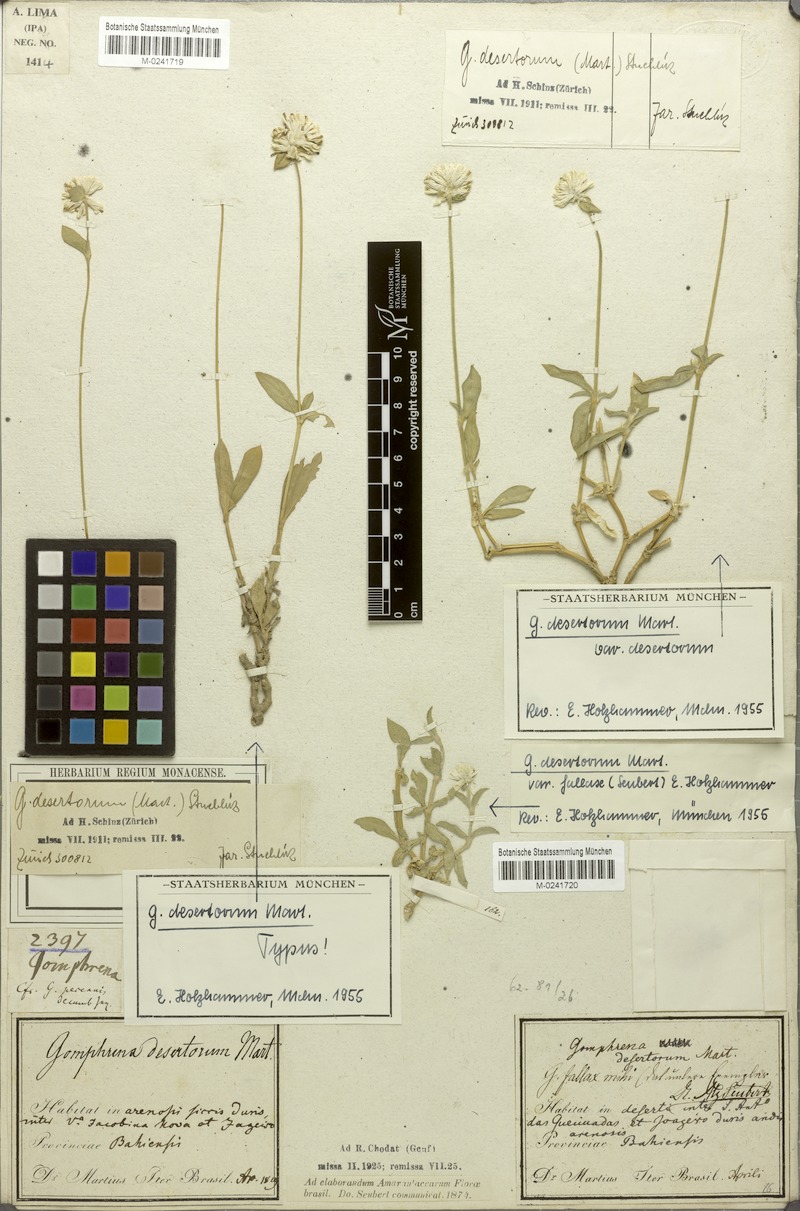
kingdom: Plantae
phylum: Tracheophyta
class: Magnoliopsida
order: Caryophyllales
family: Amaranthaceae
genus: Gomphrena
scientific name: Gomphrena desertorum
